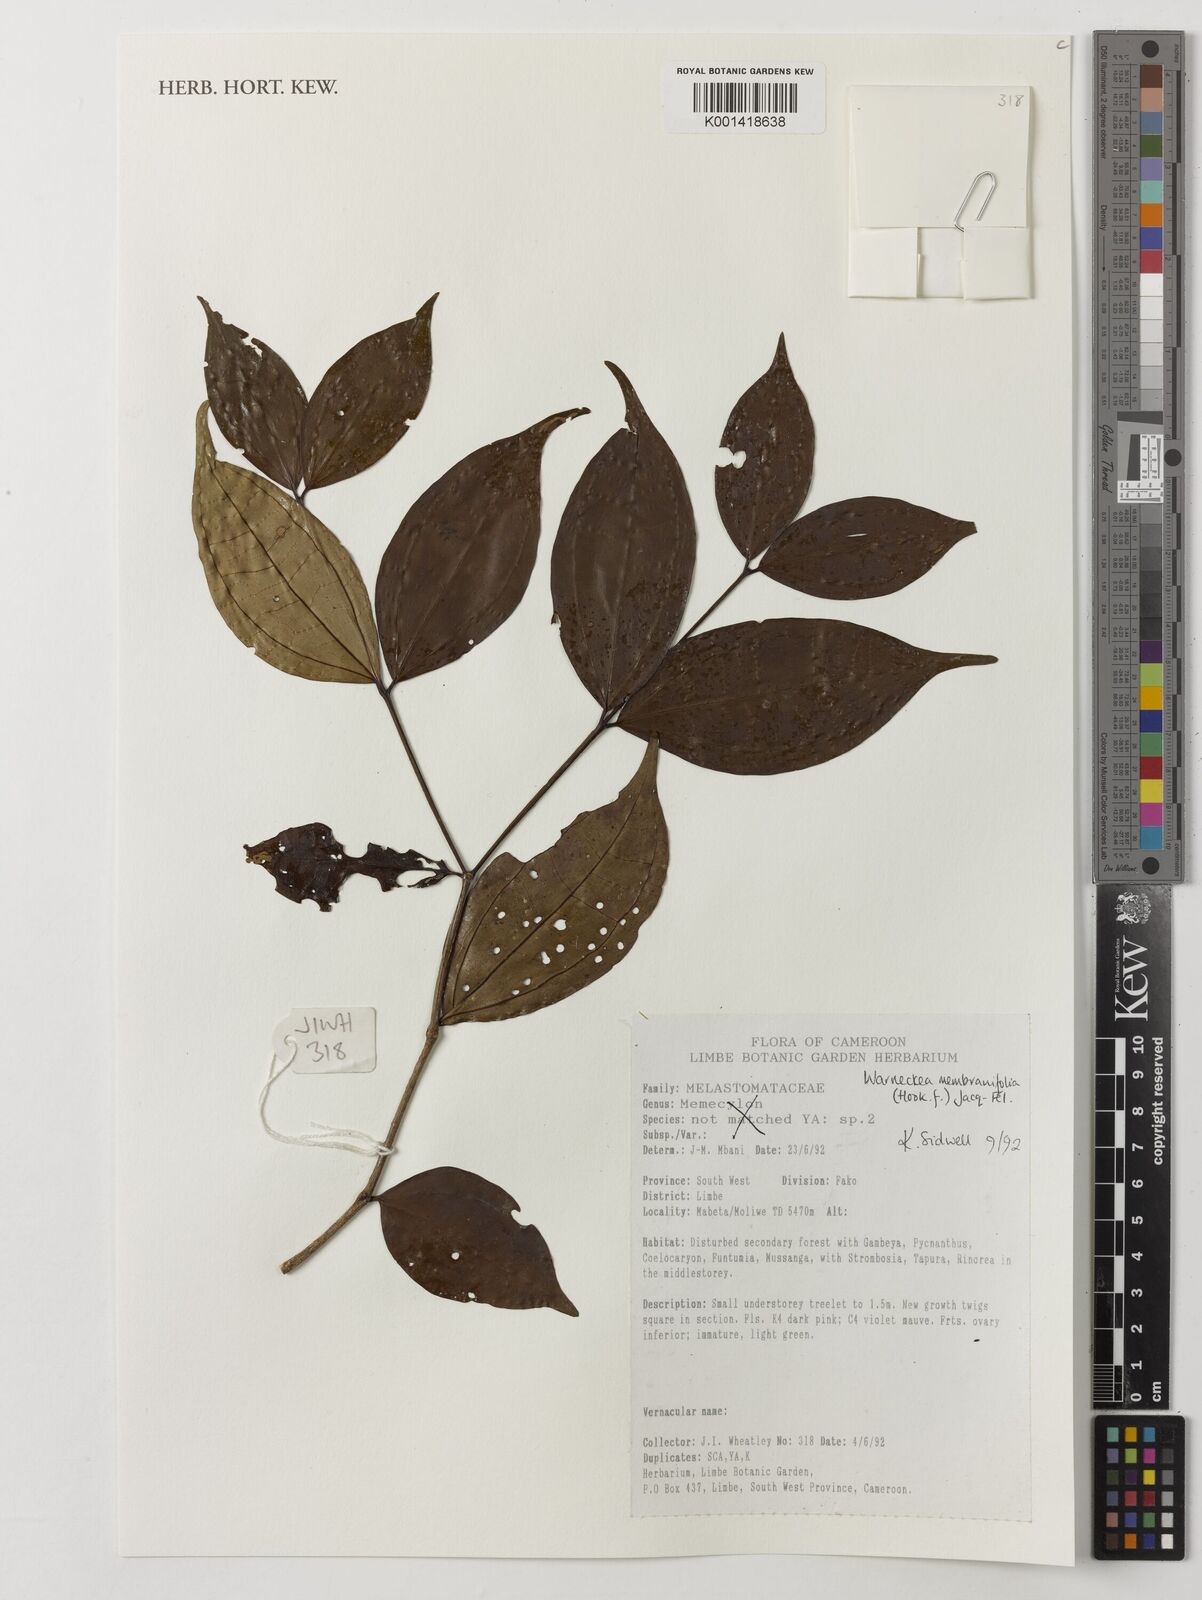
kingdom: Plantae
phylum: Tracheophyta
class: Magnoliopsida
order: Myrtales
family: Melastomataceae
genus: Warneckea
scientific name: Warneckea membranifolia
